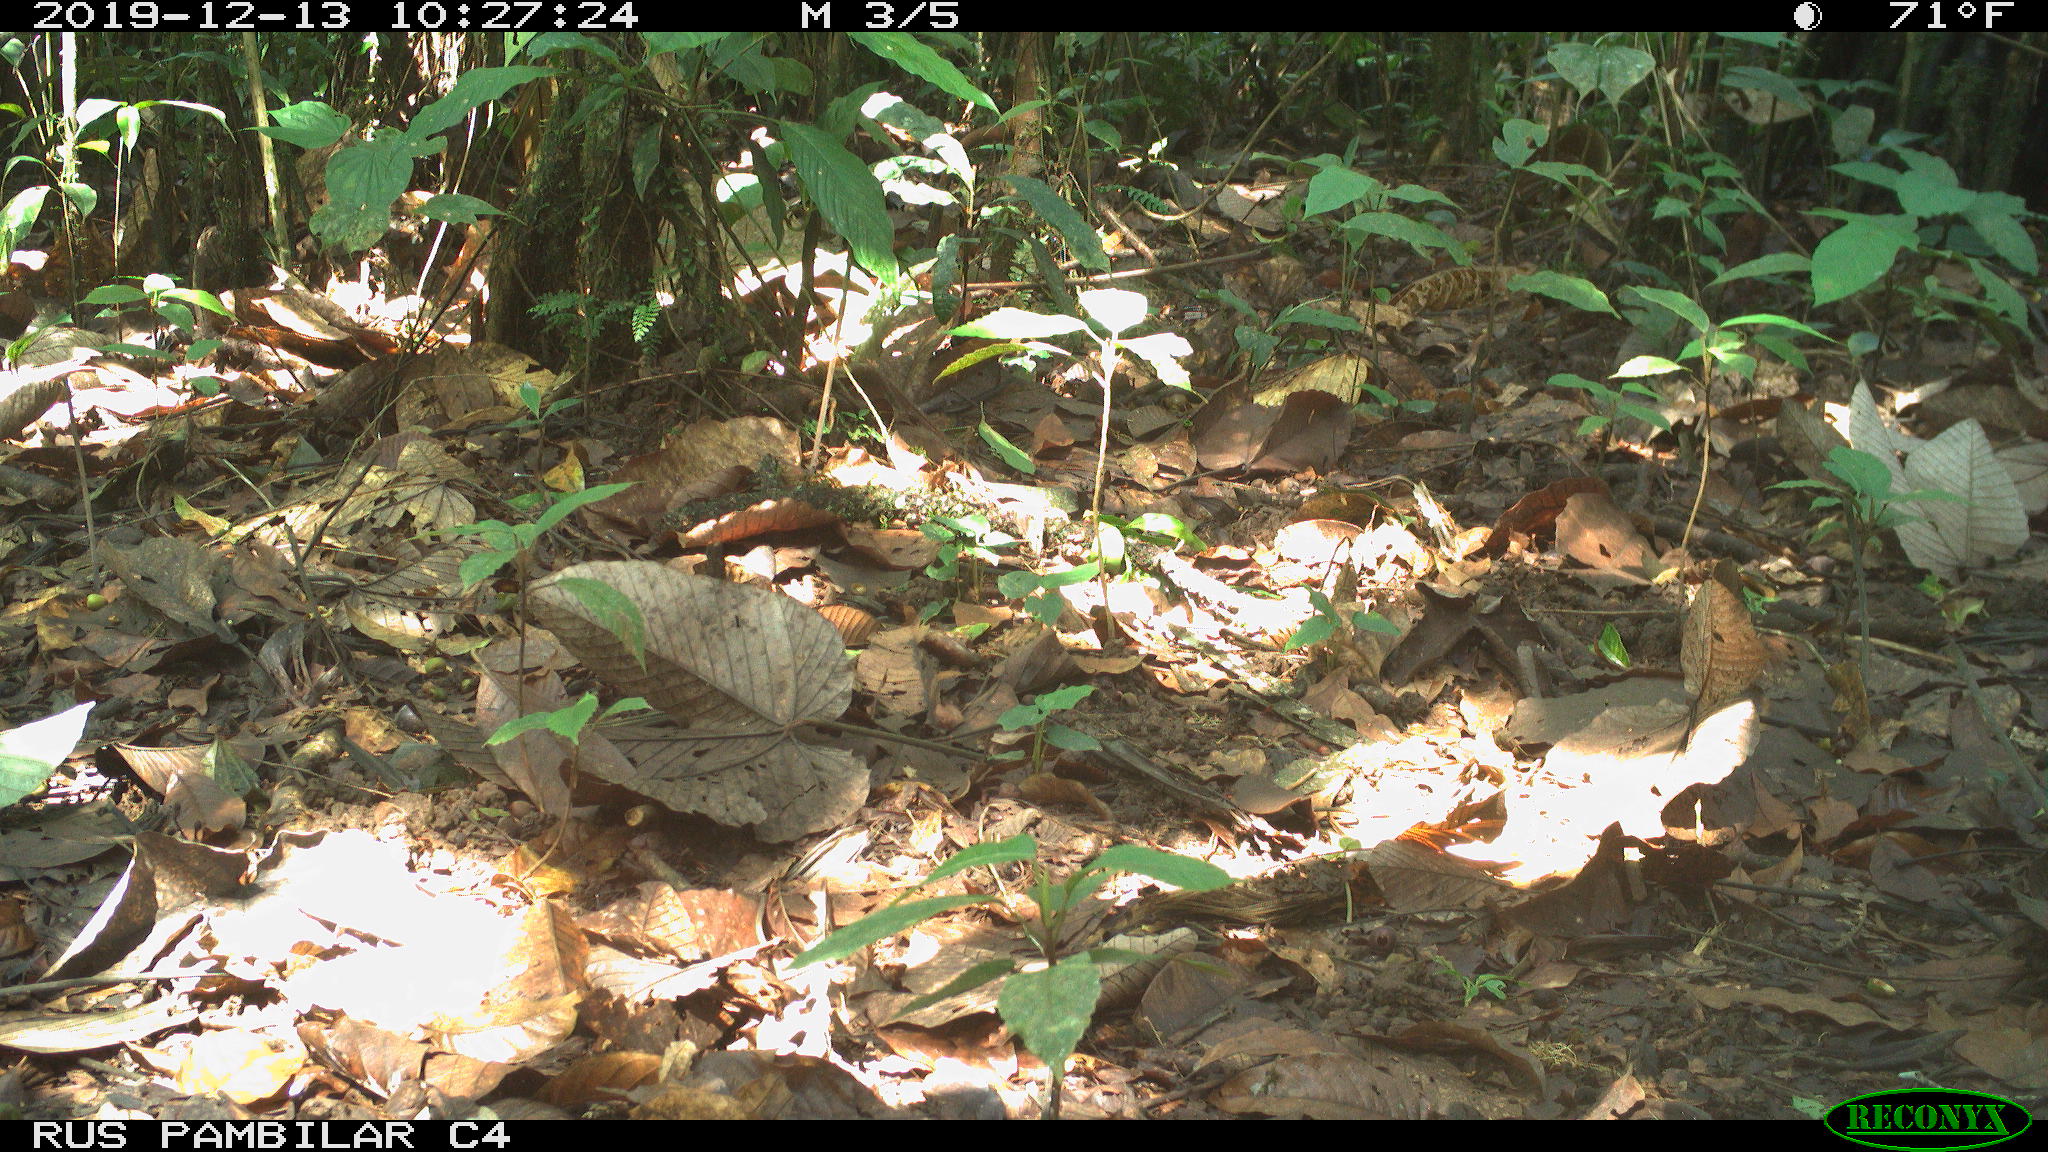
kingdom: Animalia
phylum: Chordata
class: Aves
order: Columbiformes
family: Columbidae
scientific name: Columbidae
